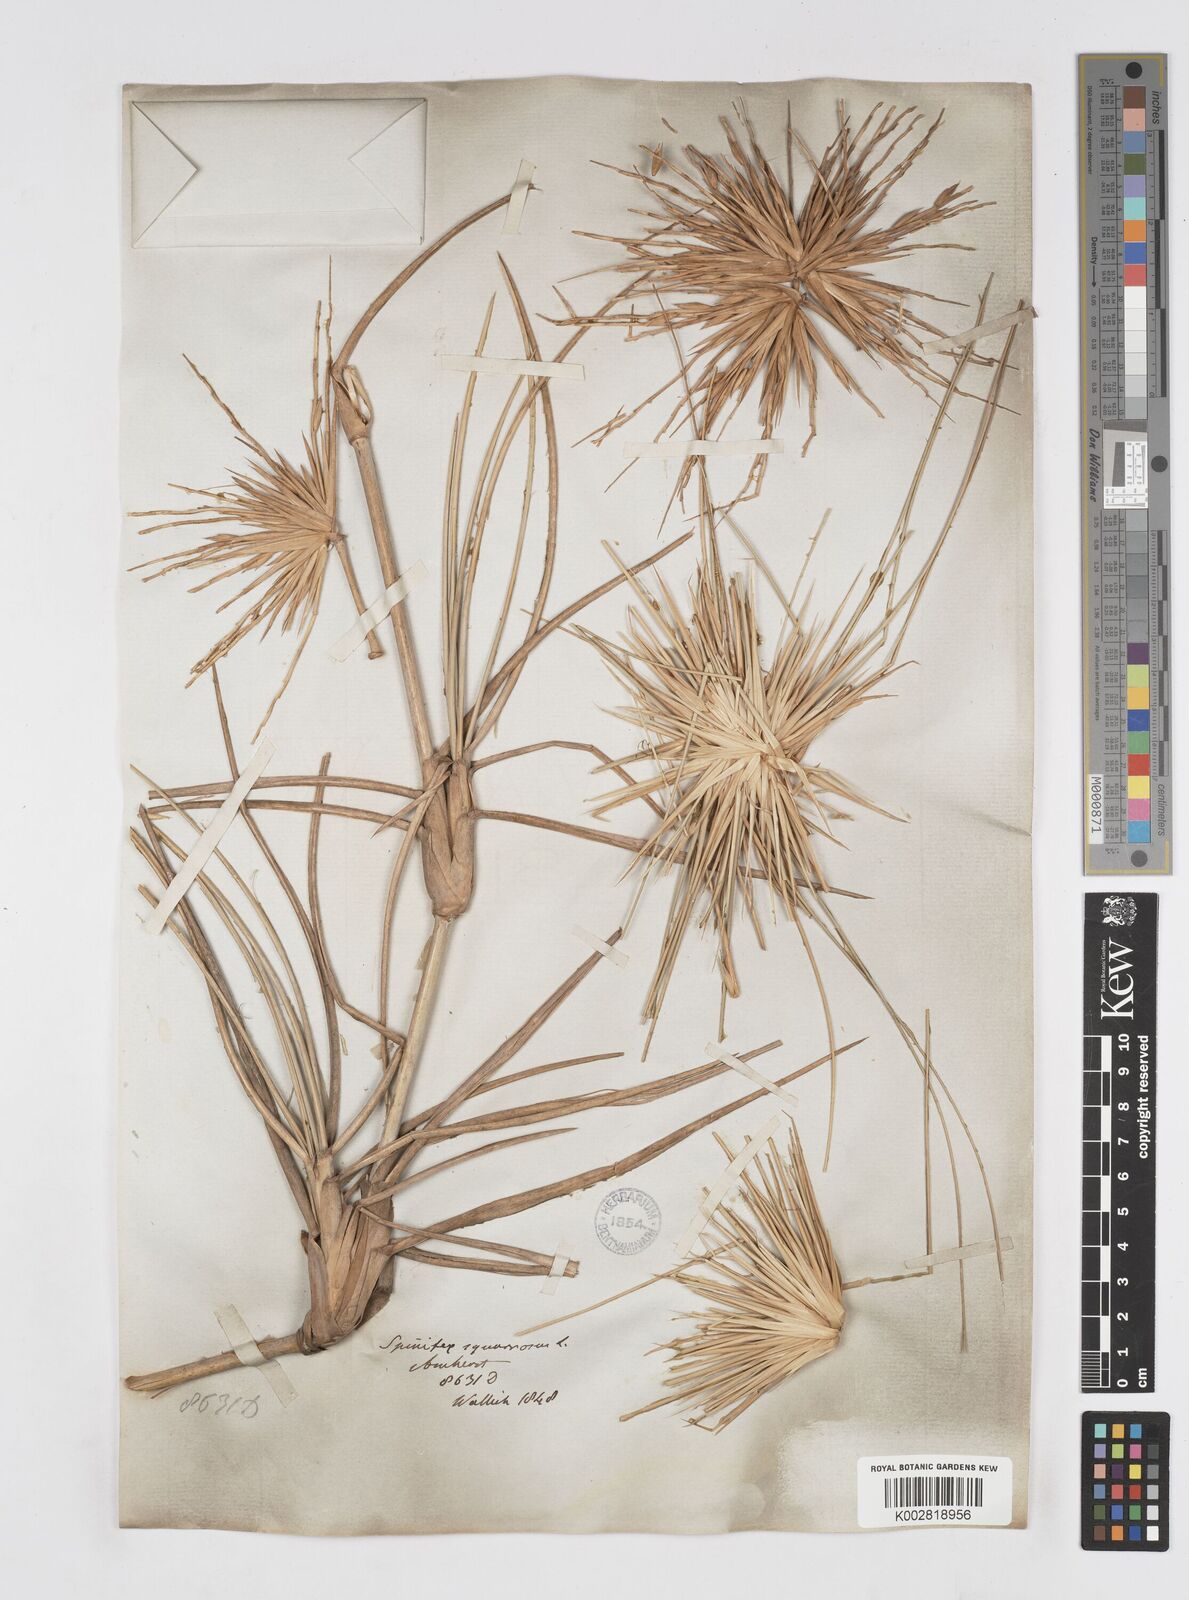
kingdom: Plantae
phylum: Tracheophyta
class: Liliopsida
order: Poales
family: Poaceae
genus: Spinifex
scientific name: Spinifex littoreus
